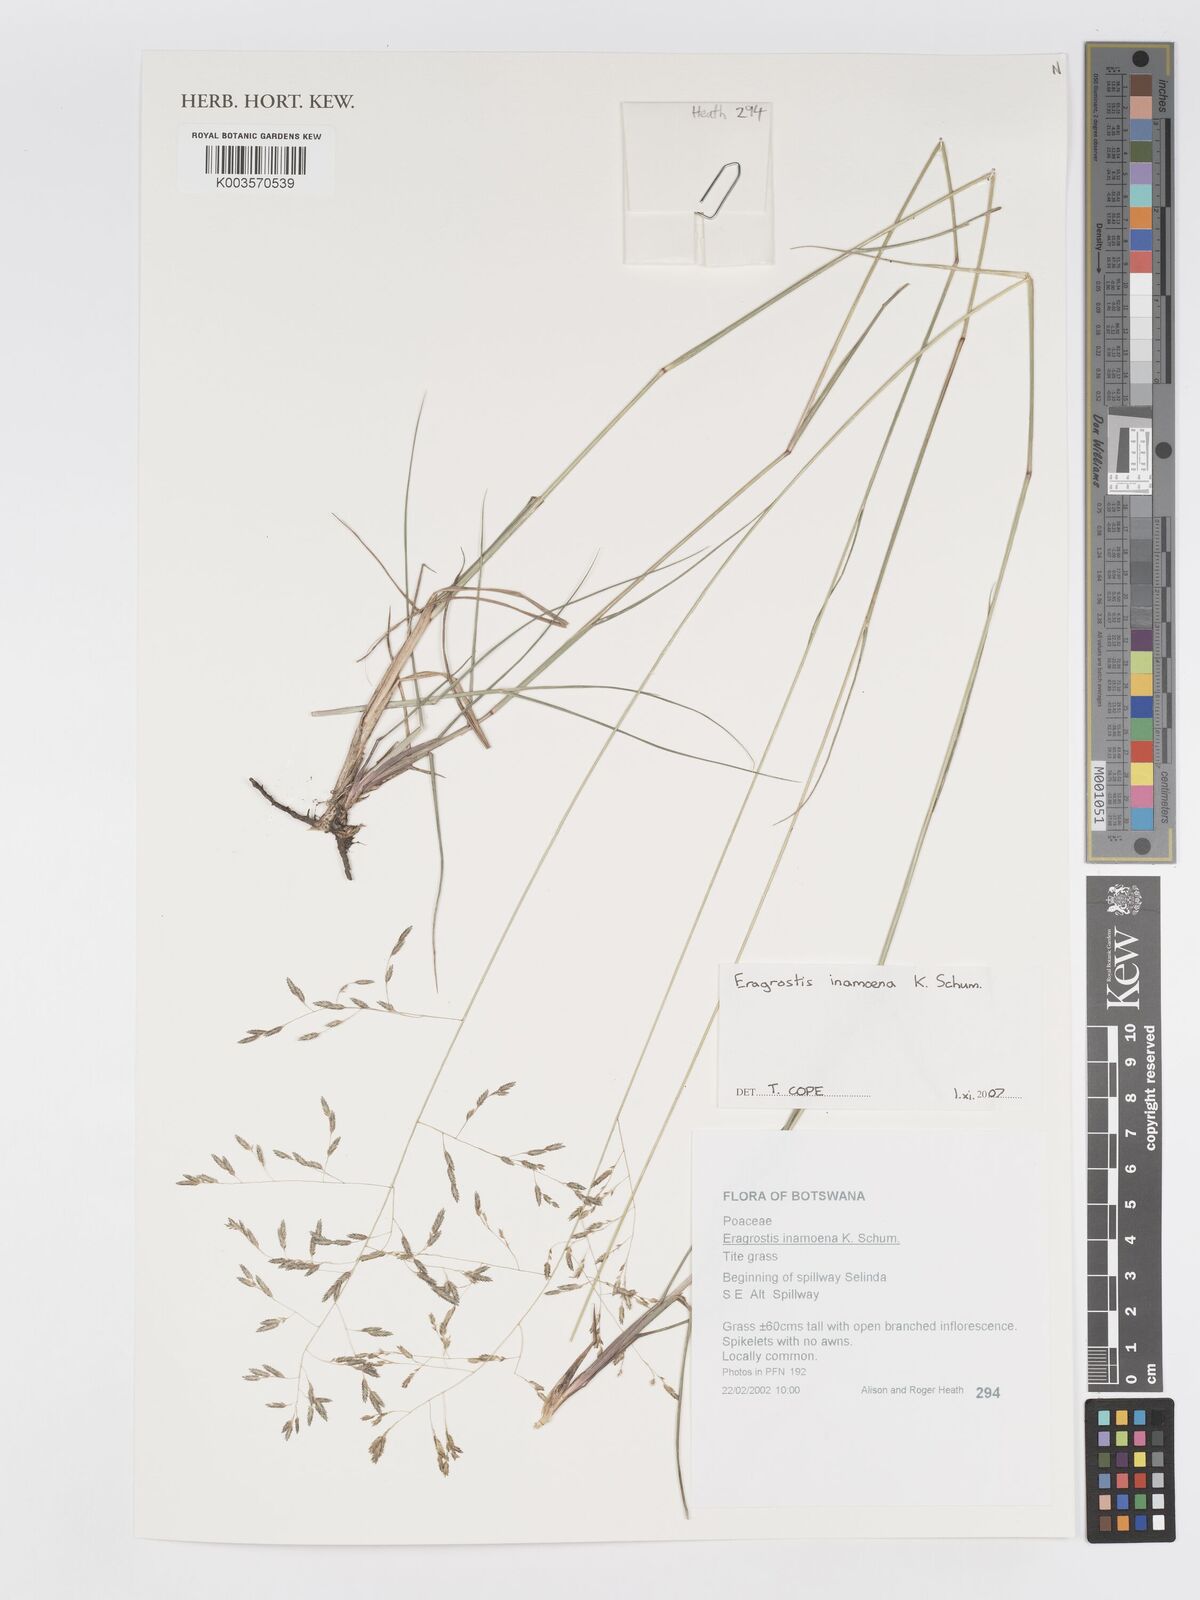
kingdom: Plantae
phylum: Tracheophyta
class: Liliopsida
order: Poales
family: Poaceae
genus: Eragrostis
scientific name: Eragrostis inamoena
